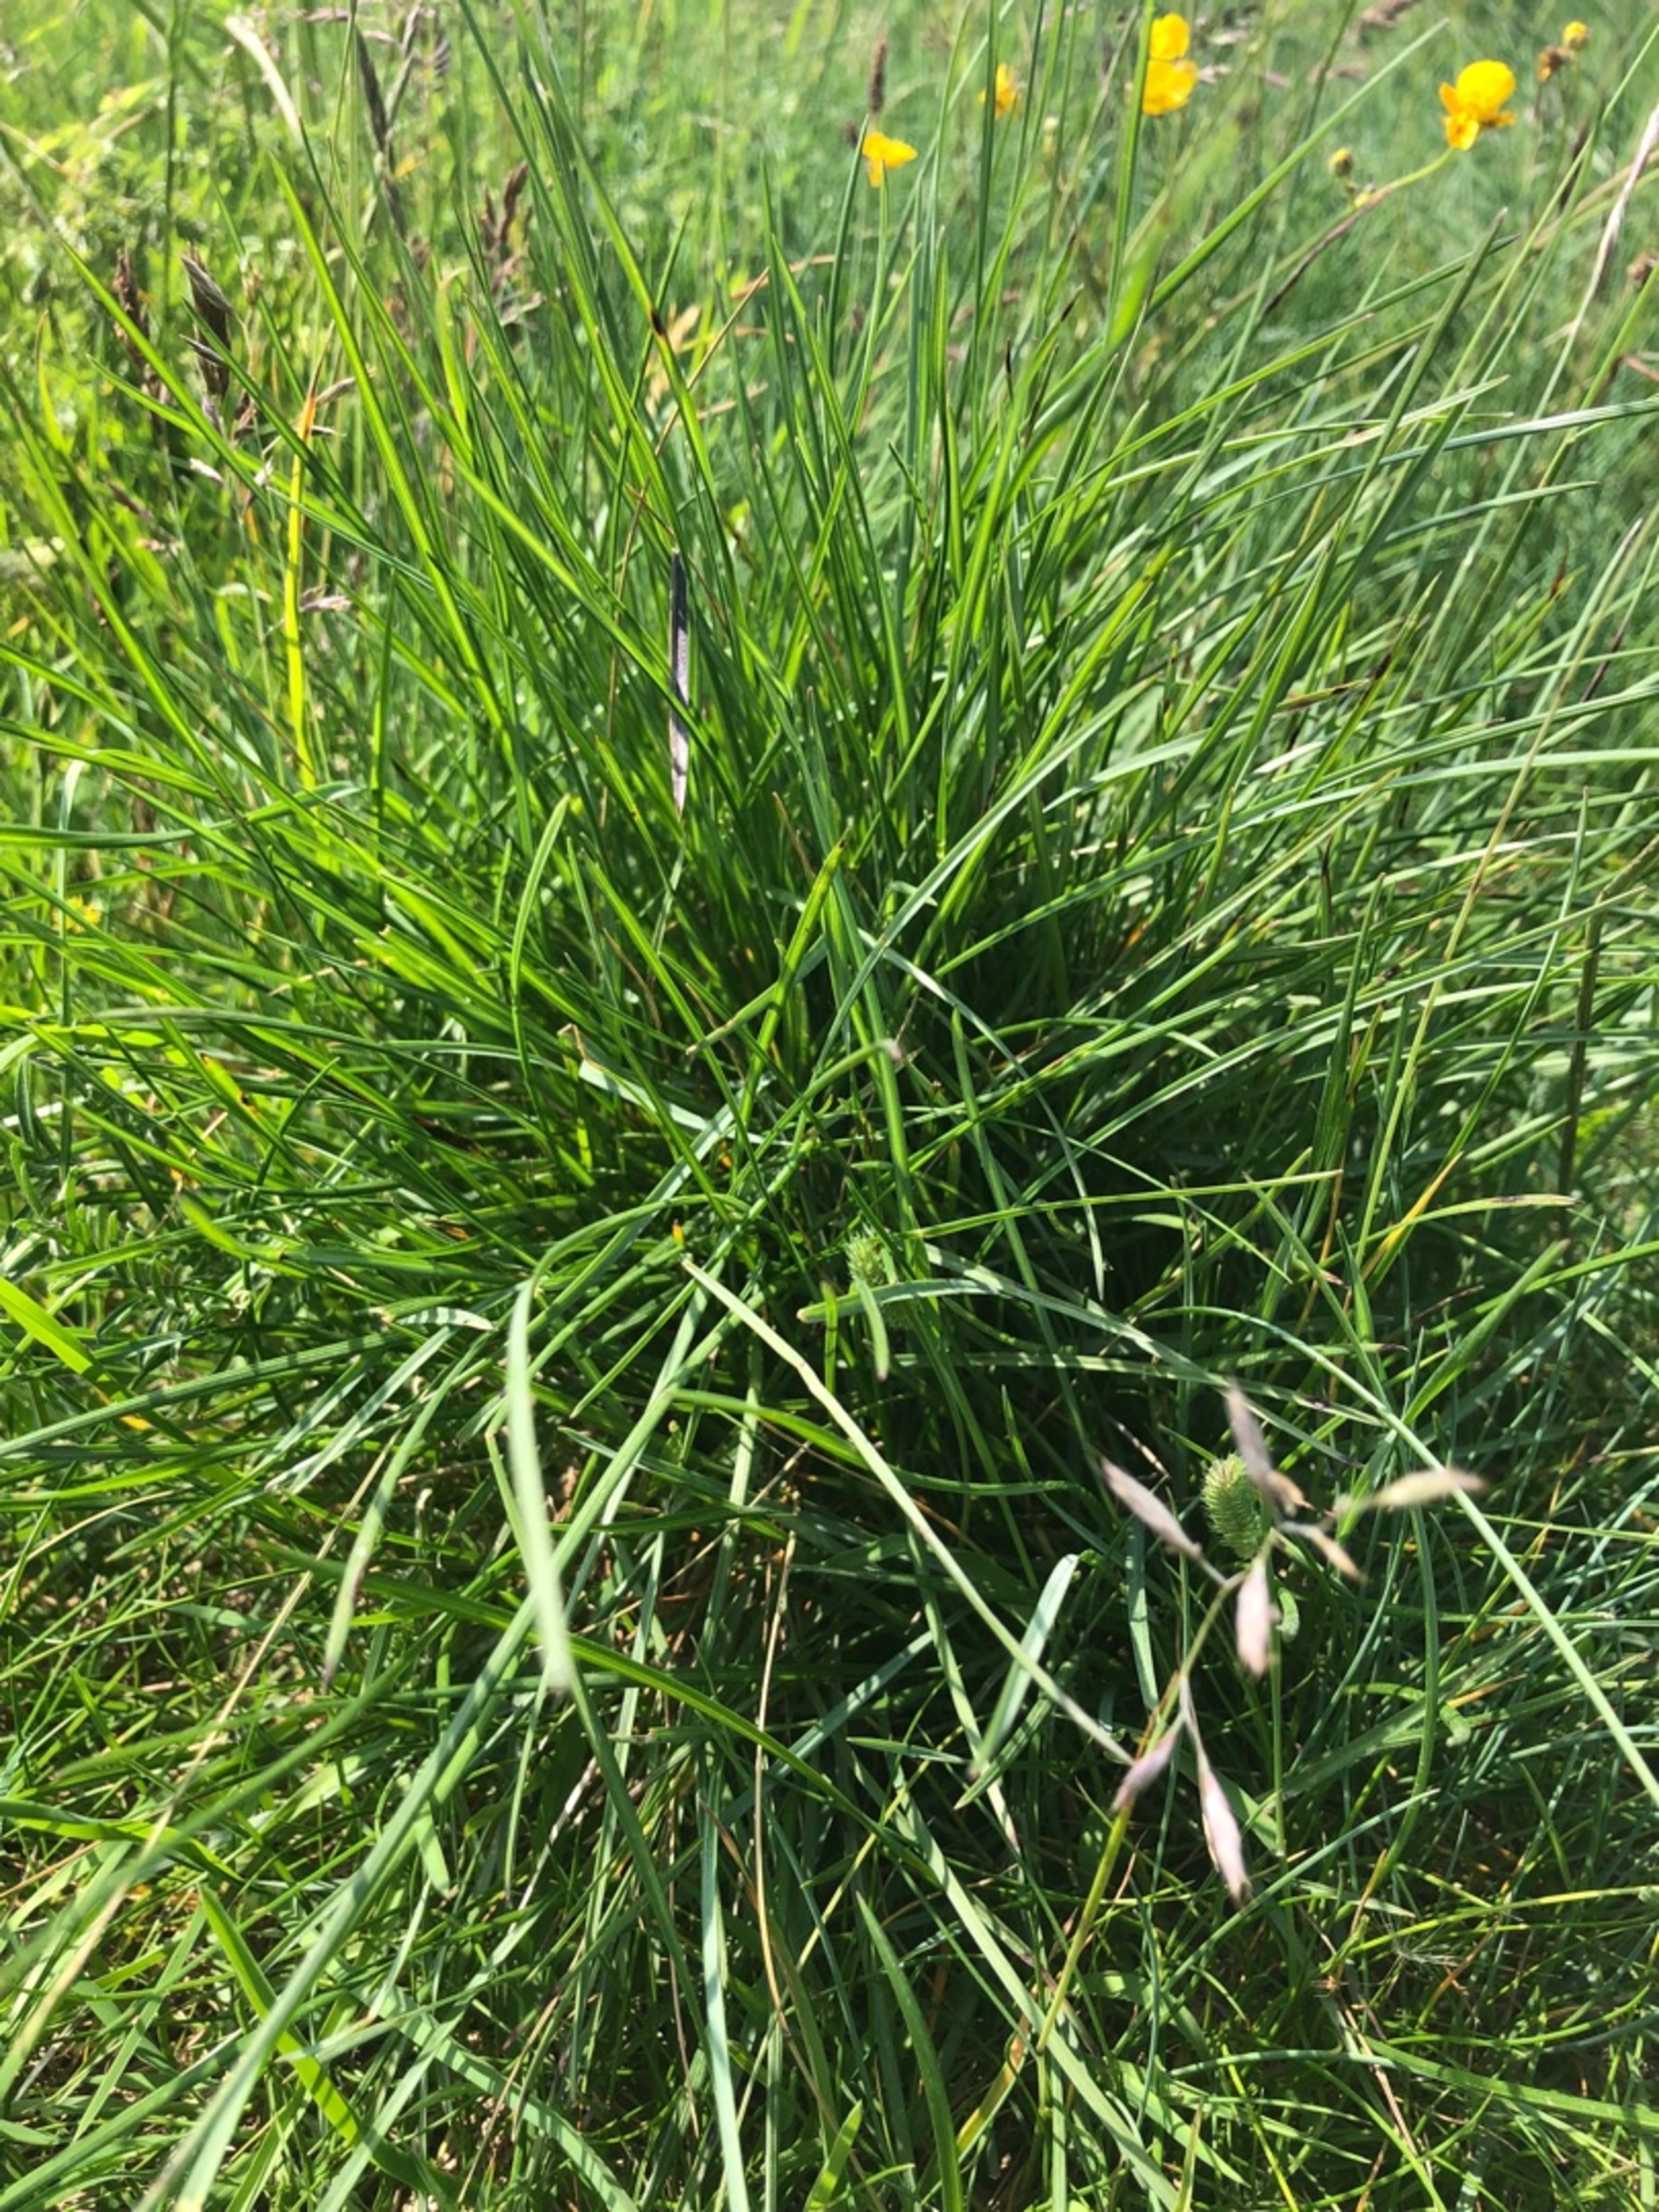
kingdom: Plantae
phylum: Tracheophyta
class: Liliopsida
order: Poales
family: Poaceae
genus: Helictochloa
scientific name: Helictochloa pratensis
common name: Eng-havre
